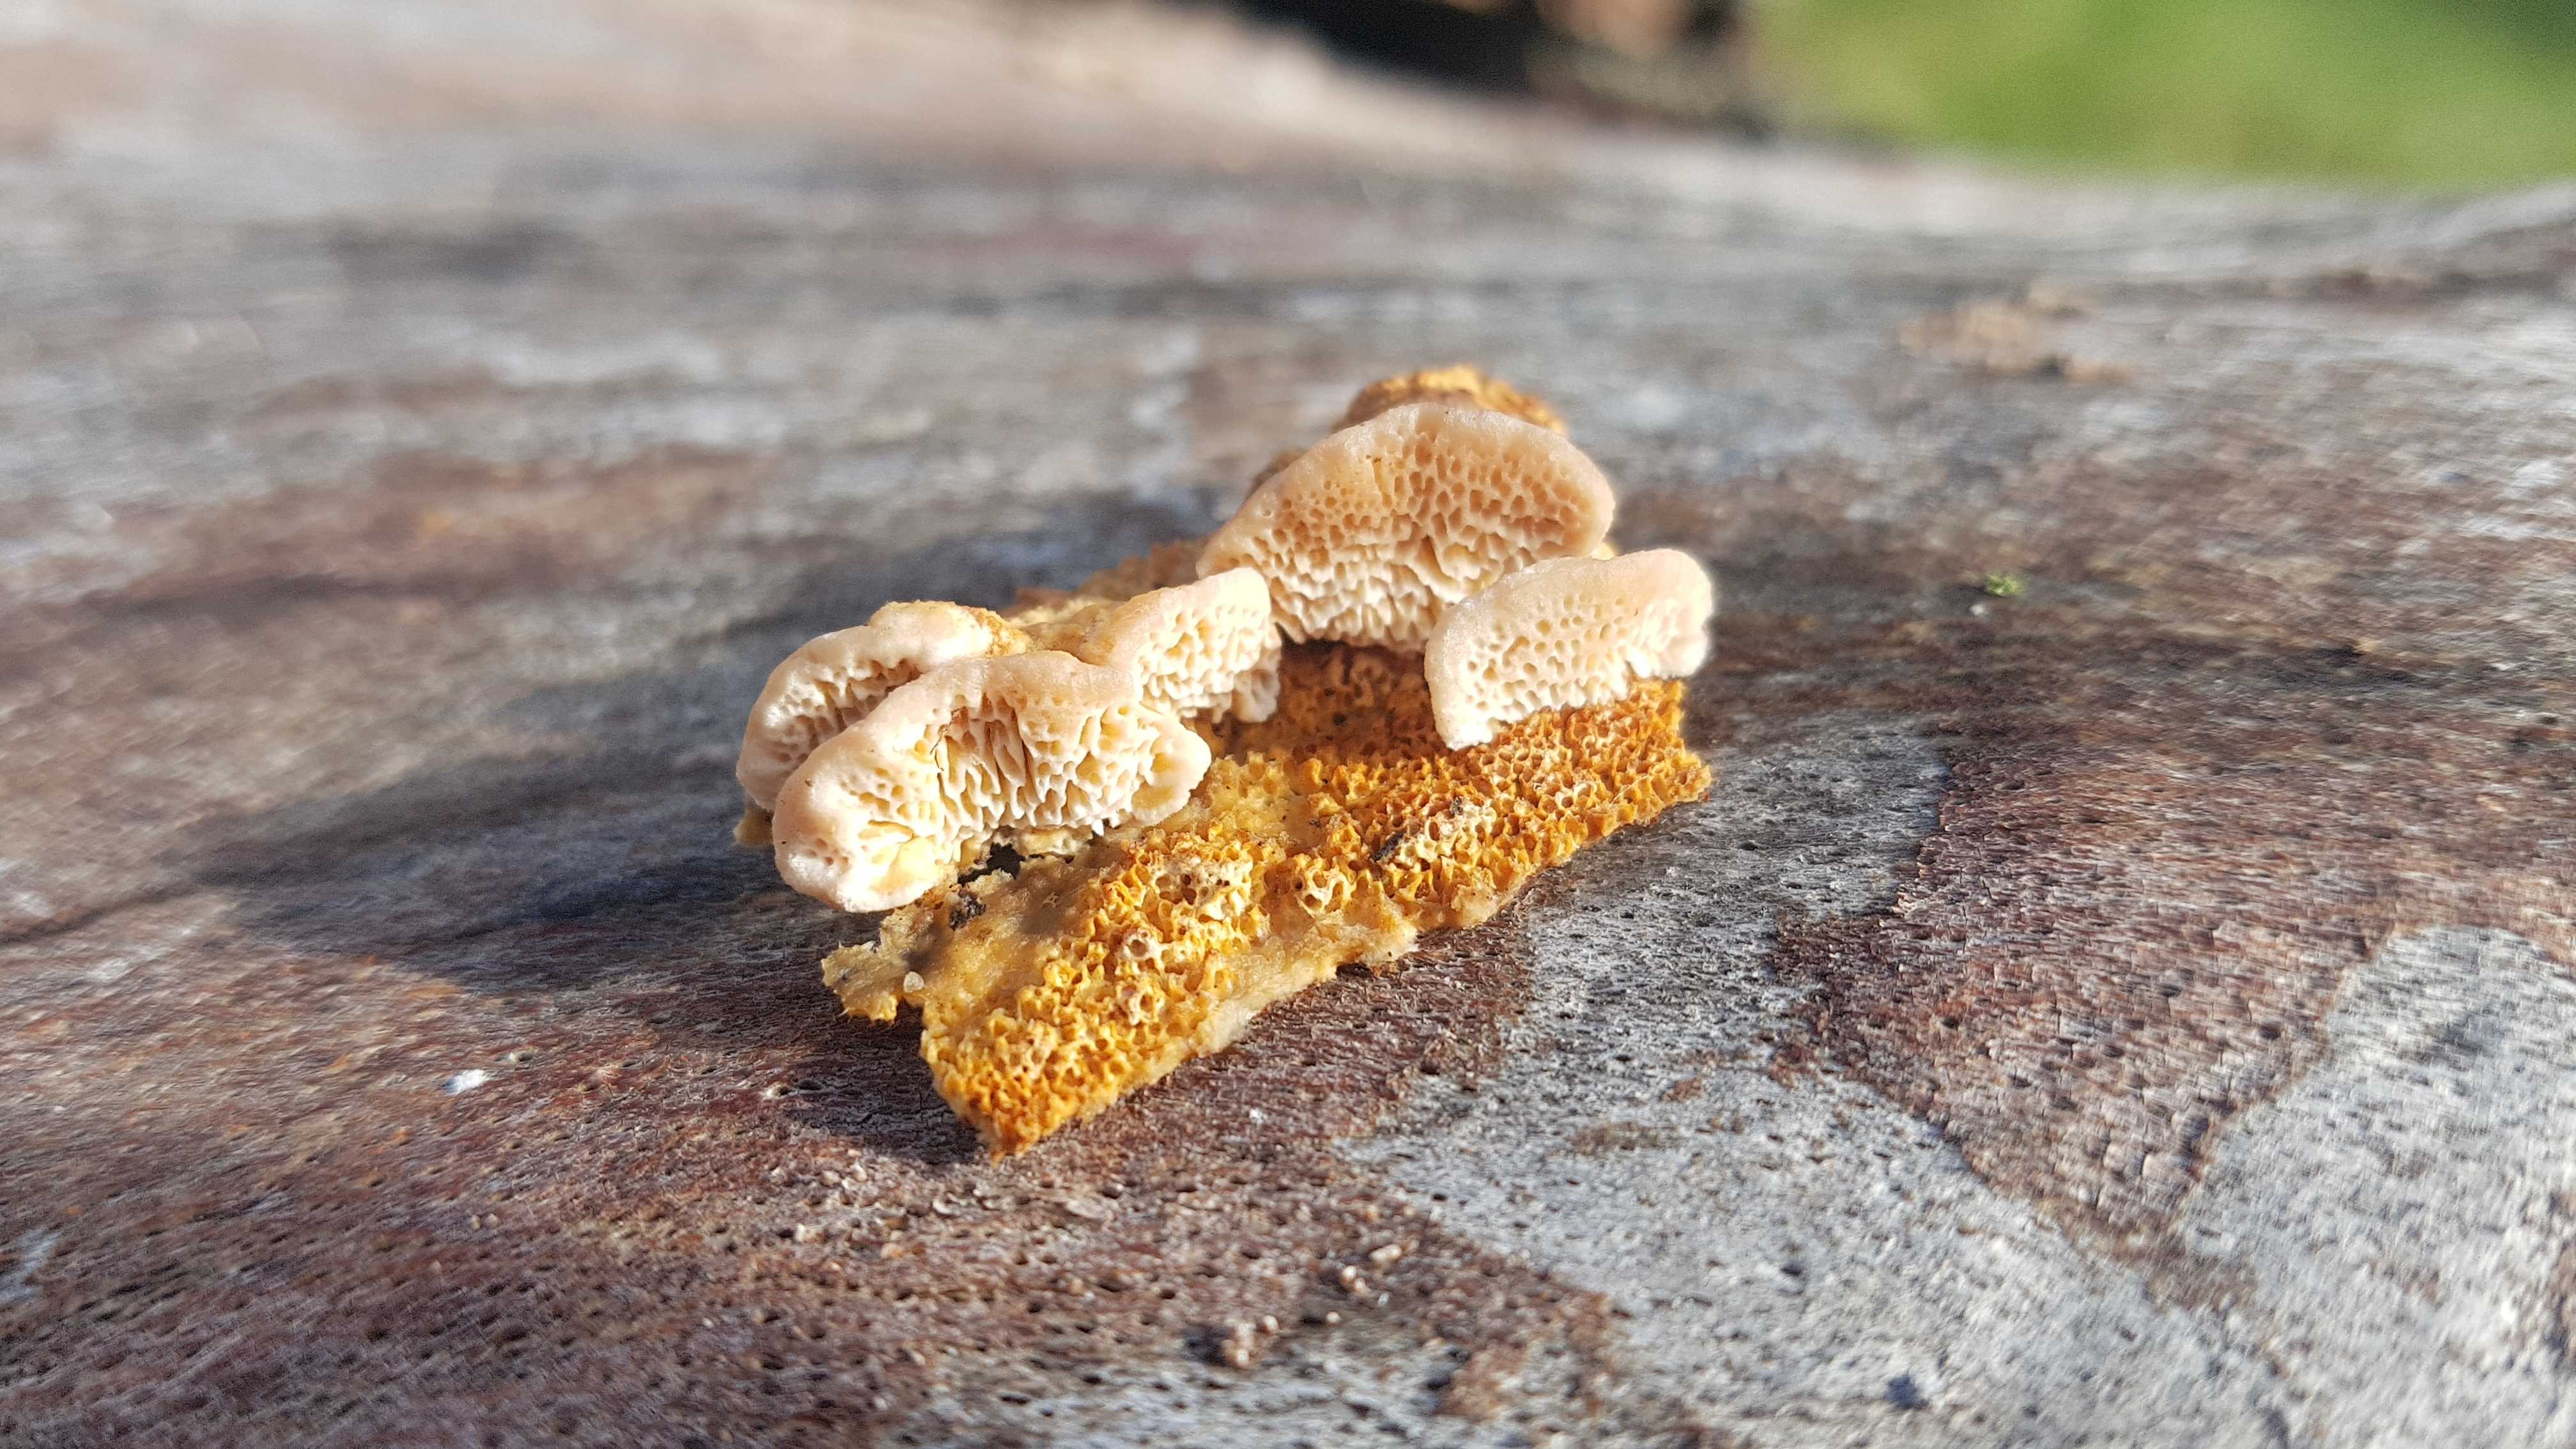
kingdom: Fungi
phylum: Basidiomycota
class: Agaricomycetes
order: Polyporales
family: Fomitopsidaceae
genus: Brunneoporus
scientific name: Brunneoporus kuzyanus
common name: brunlig sejporesvamp
